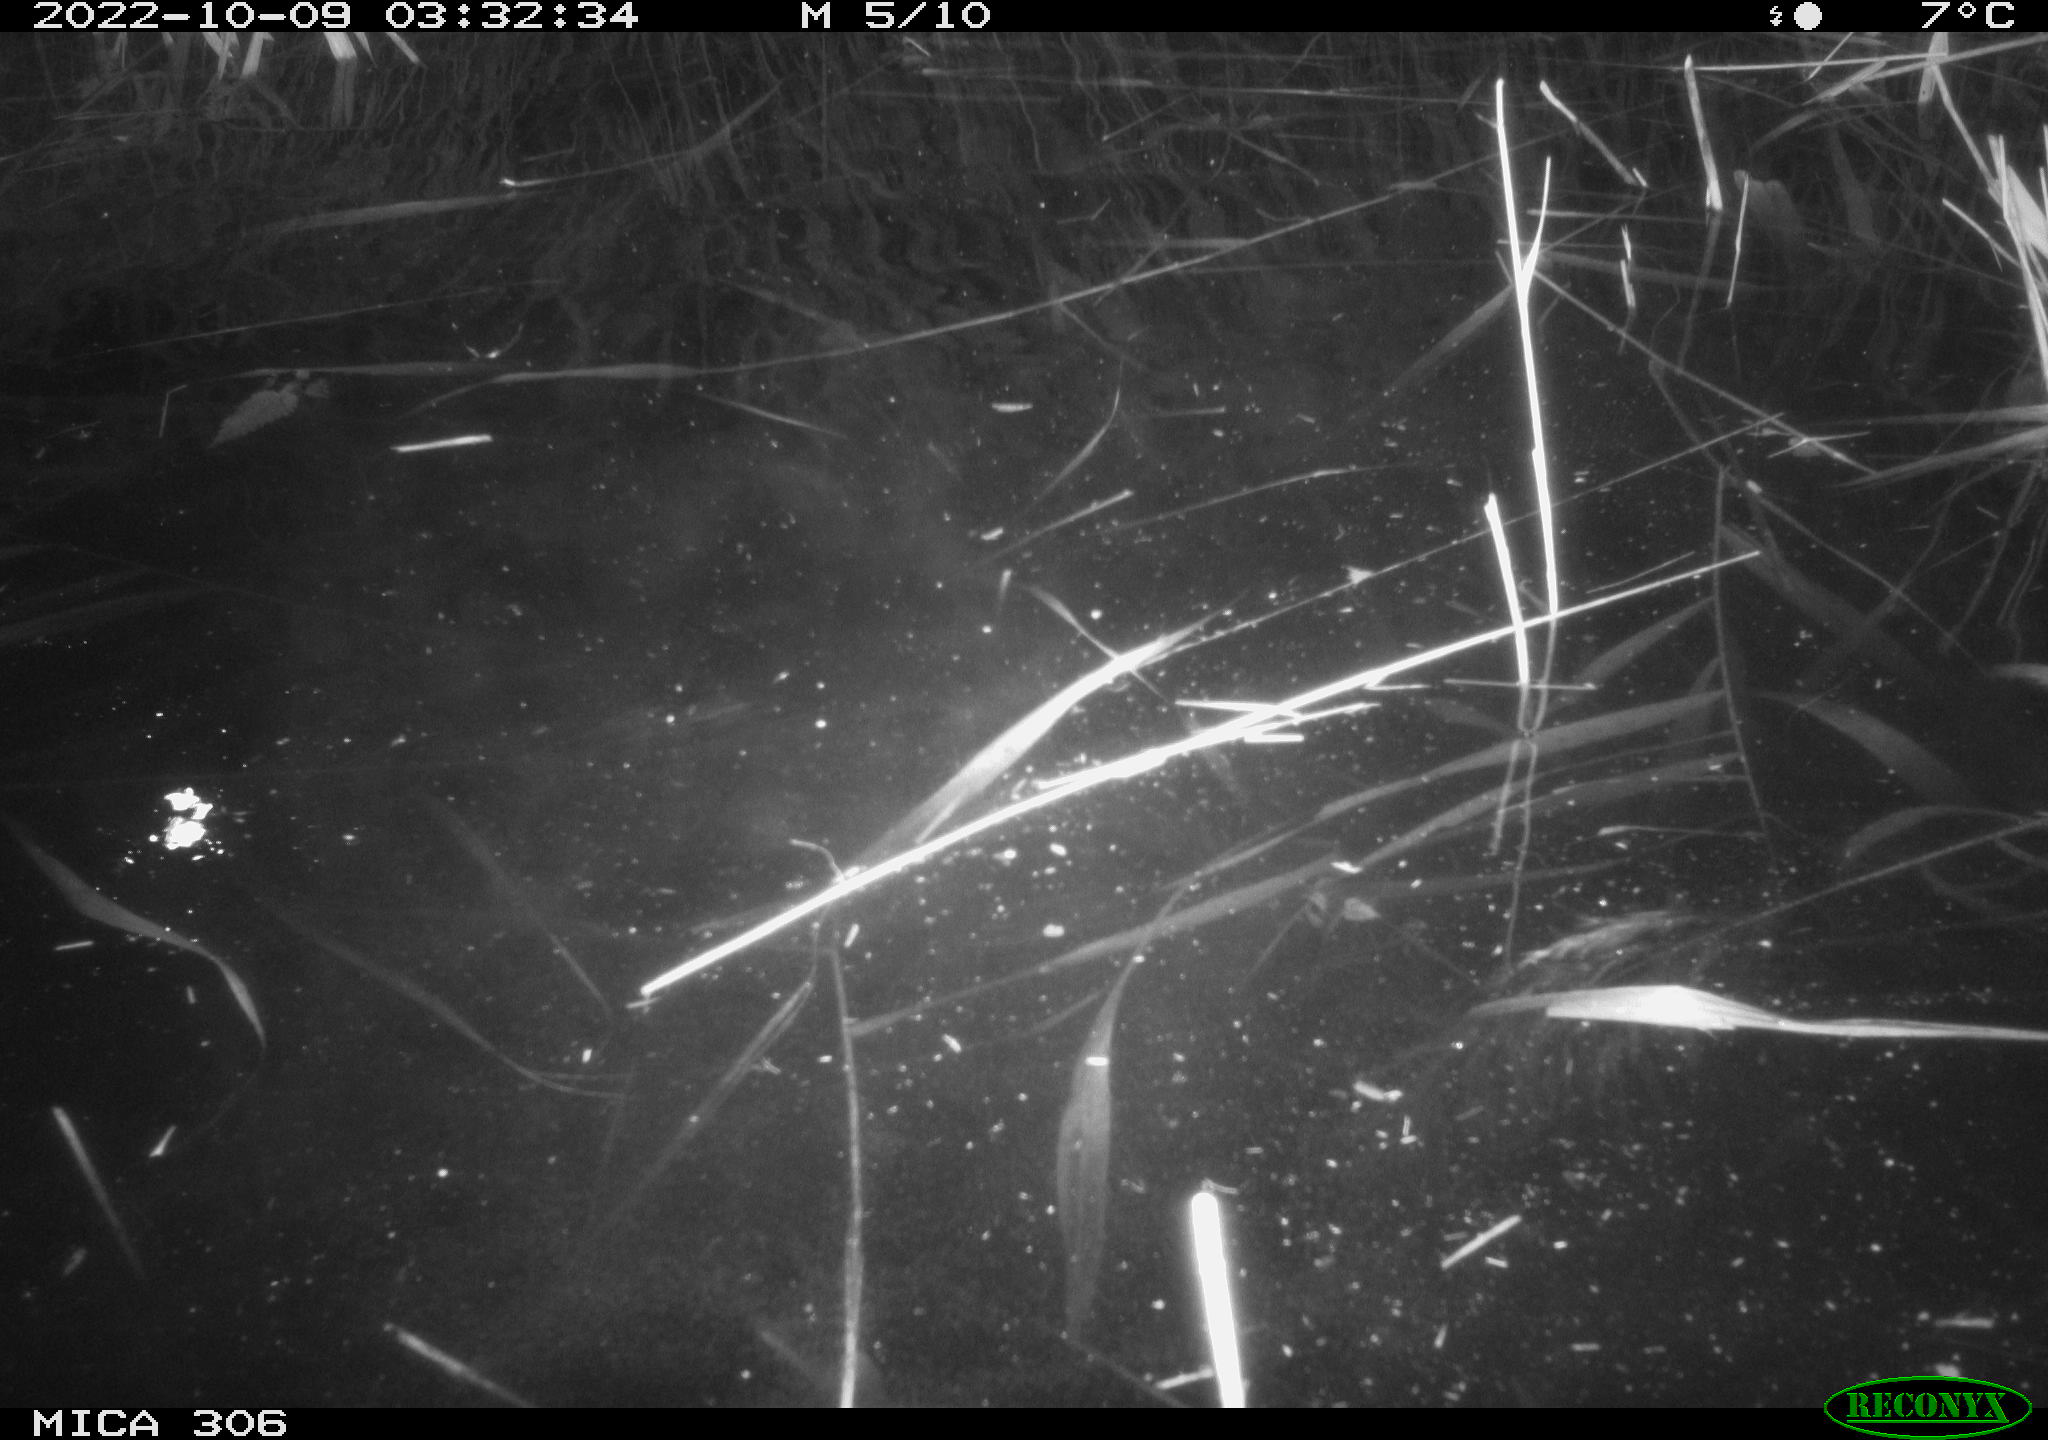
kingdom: Animalia
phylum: Chordata
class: Mammalia
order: Rodentia
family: Muridae
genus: Rattus
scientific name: Rattus norvegicus
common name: Brown rat
